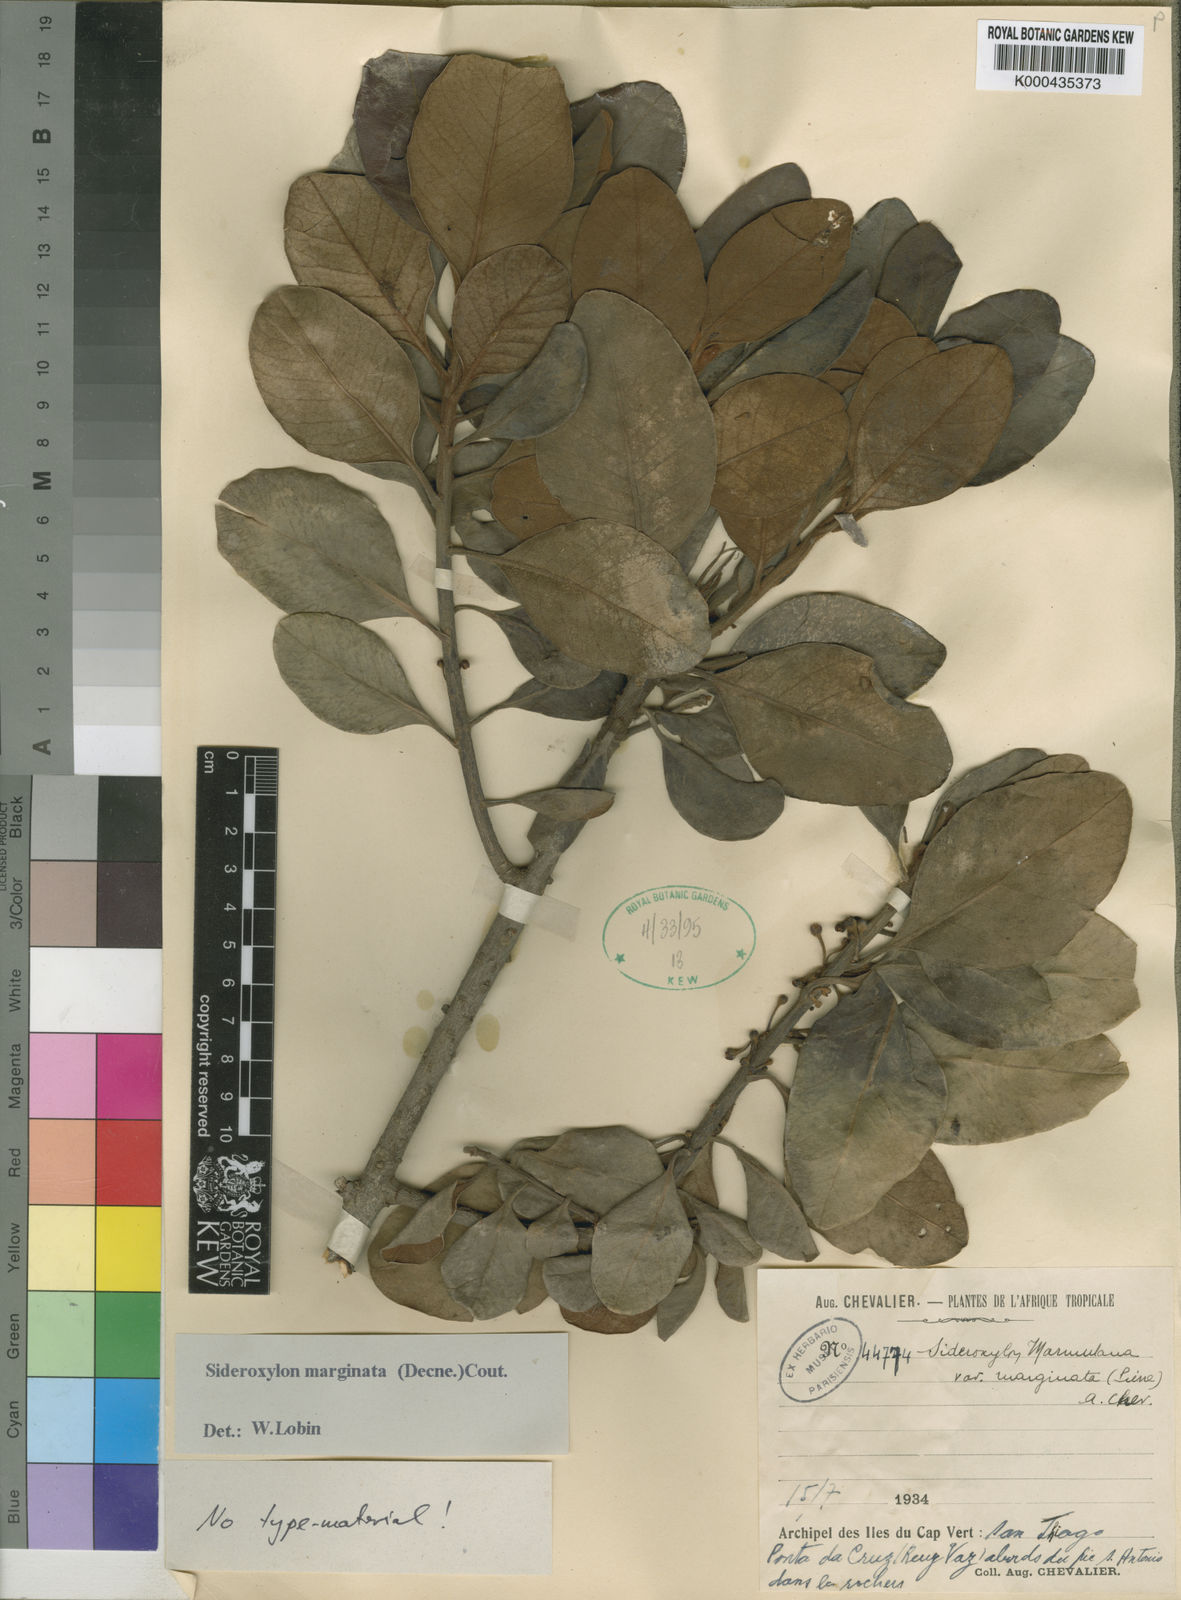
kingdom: Plantae
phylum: Tracheophyta
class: Magnoliopsida
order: Ericales
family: Sapotaceae
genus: Sideroxylon
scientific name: Sideroxylon marginatum
